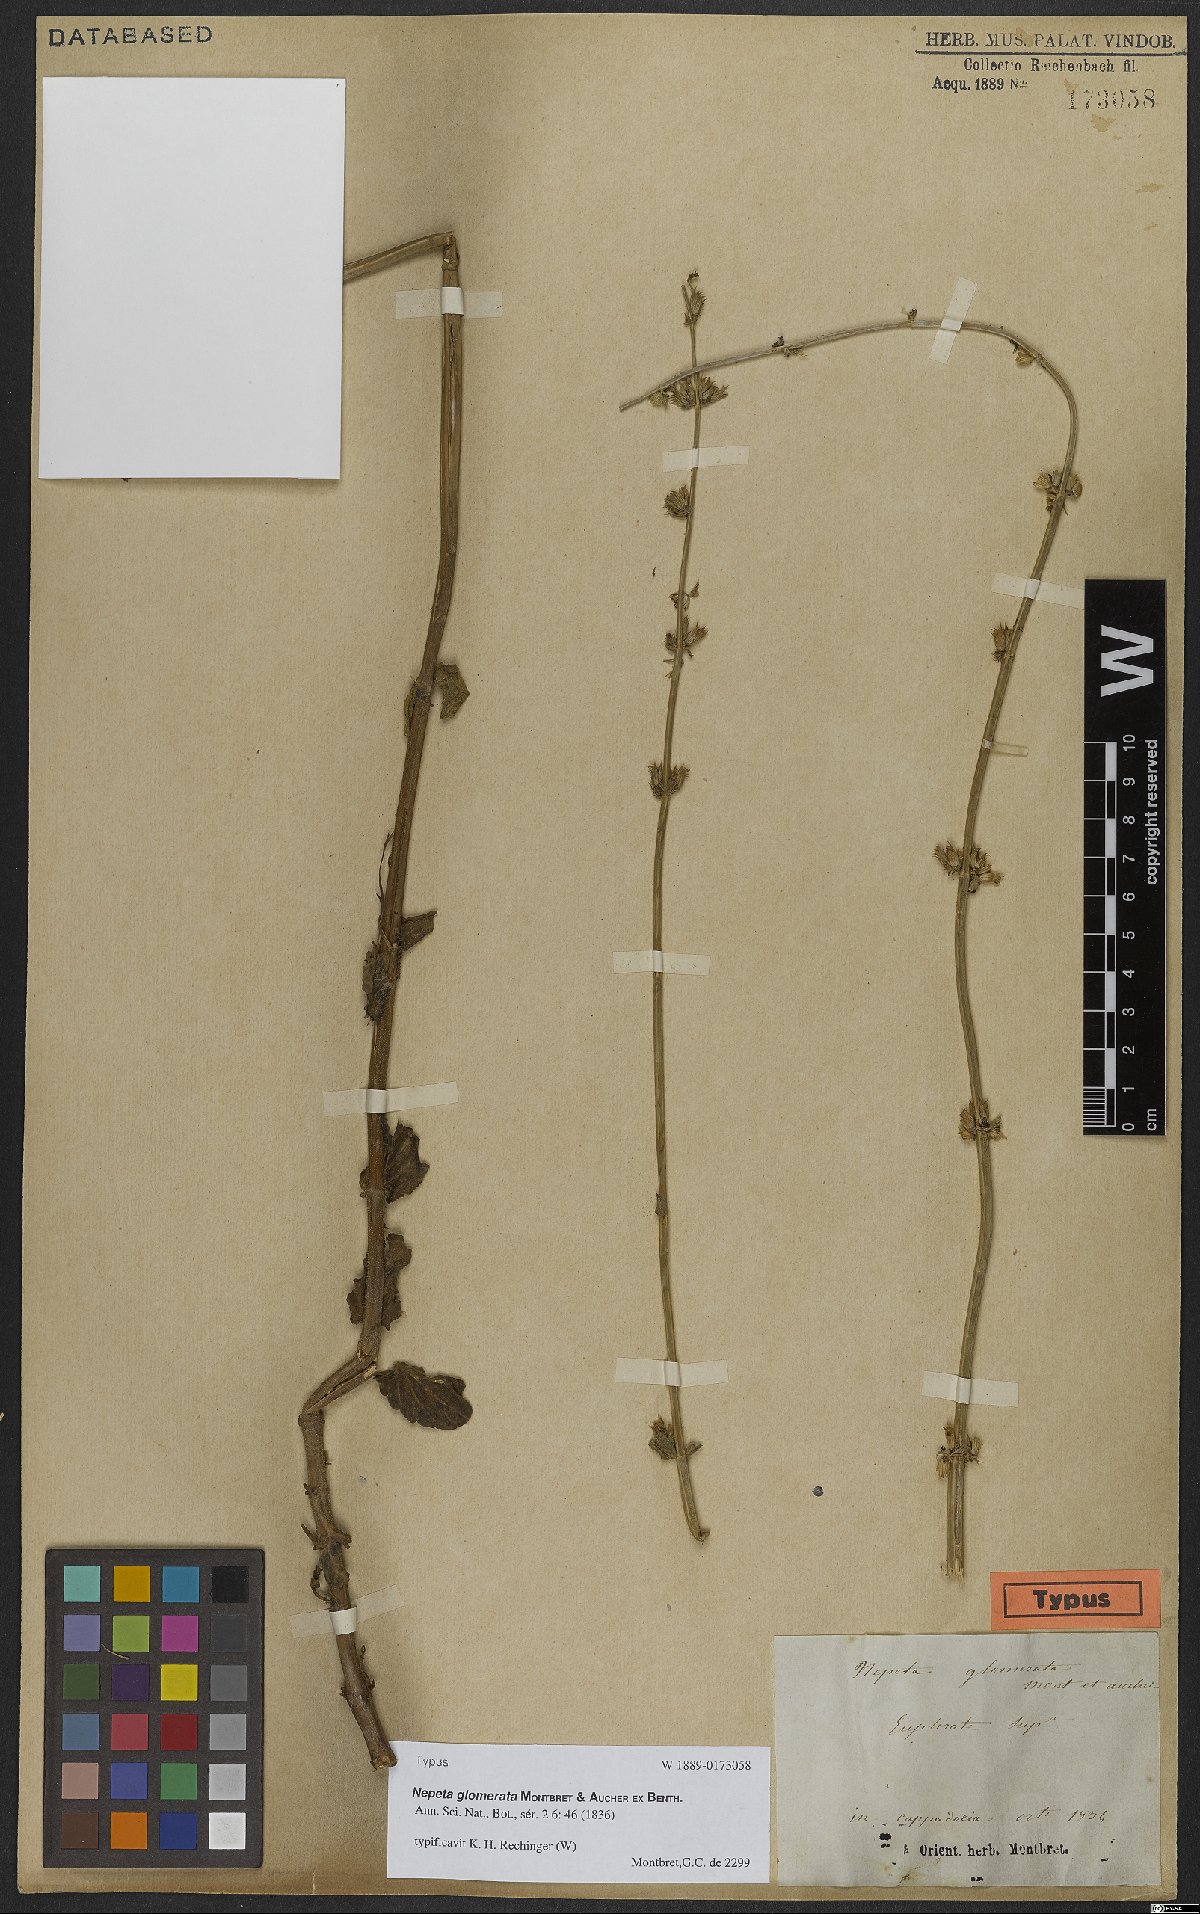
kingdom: Plantae
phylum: Tracheophyta
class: Magnoliopsida
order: Lamiales
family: Lamiaceae
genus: Nepeta
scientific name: Nepeta glomerata
